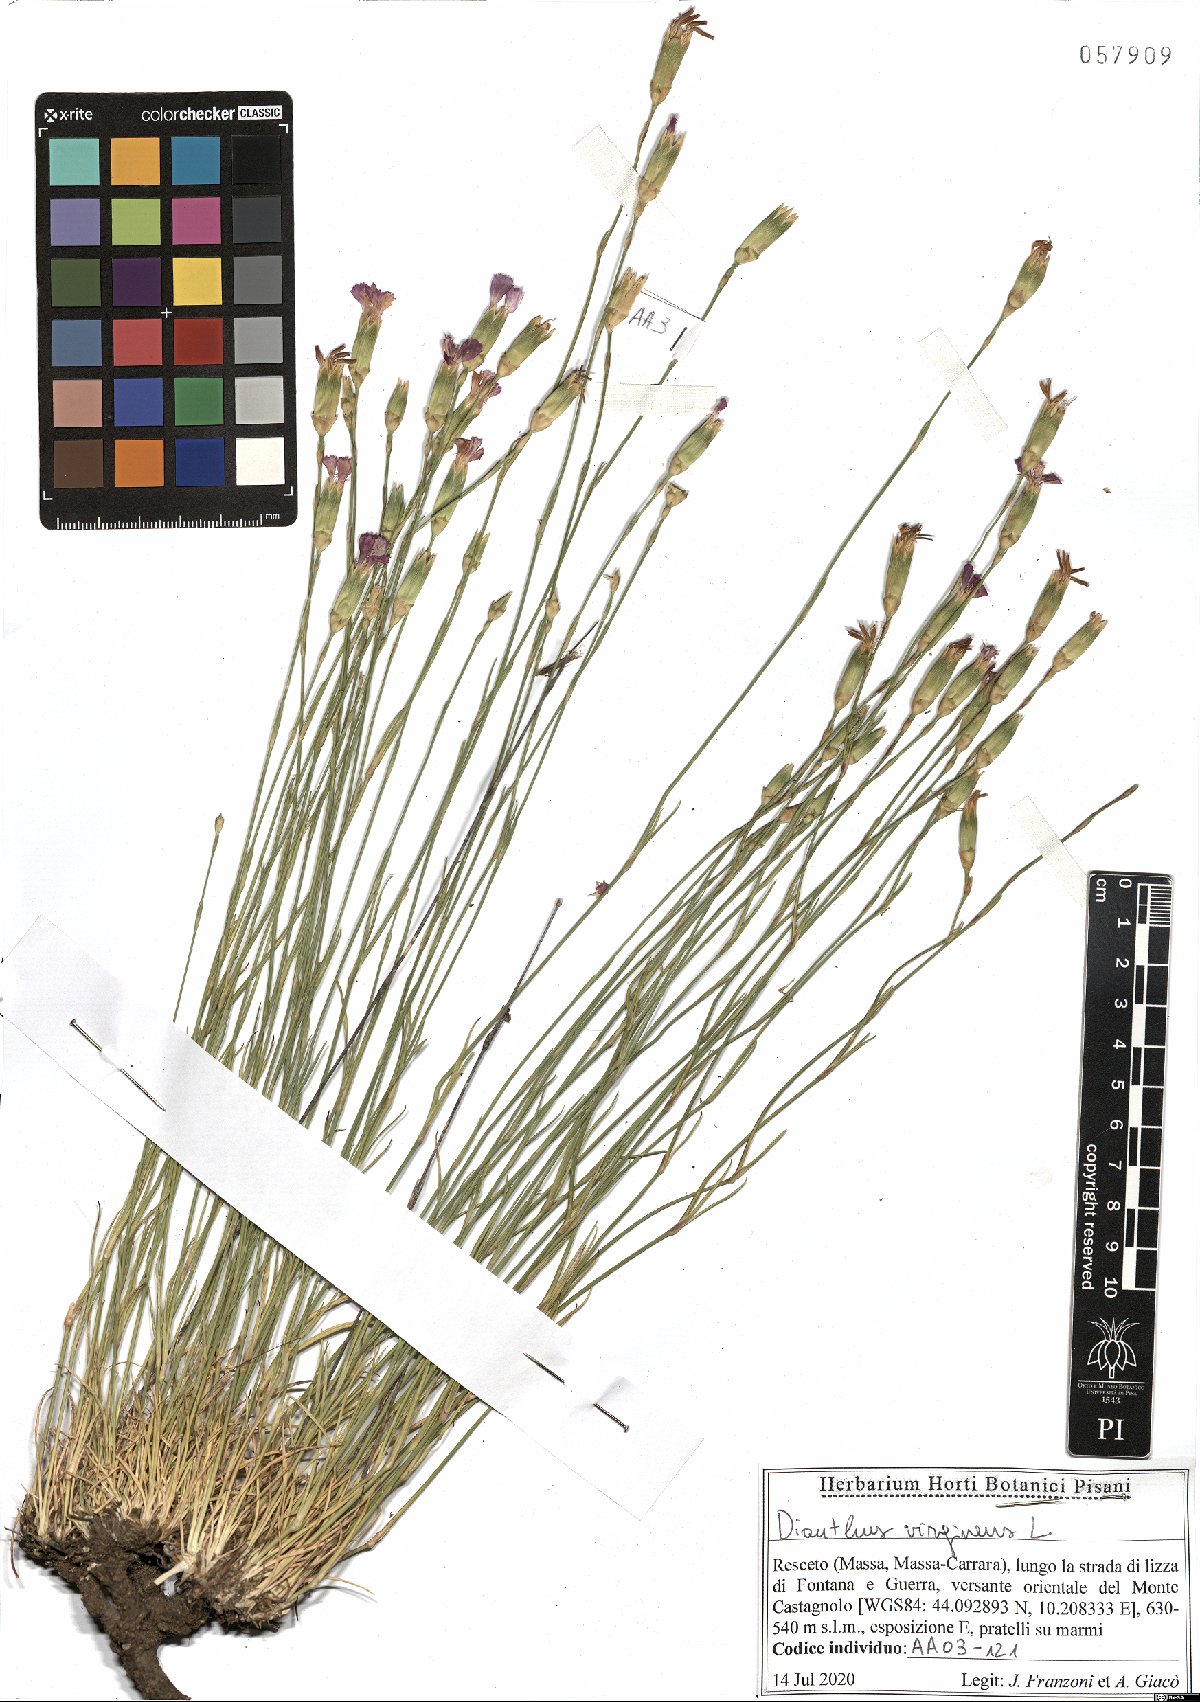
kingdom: Plantae
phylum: Tracheophyta
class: Magnoliopsida
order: Caryophyllales
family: Caryophyllaceae
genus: Dianthus
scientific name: Dianthus virgineus
